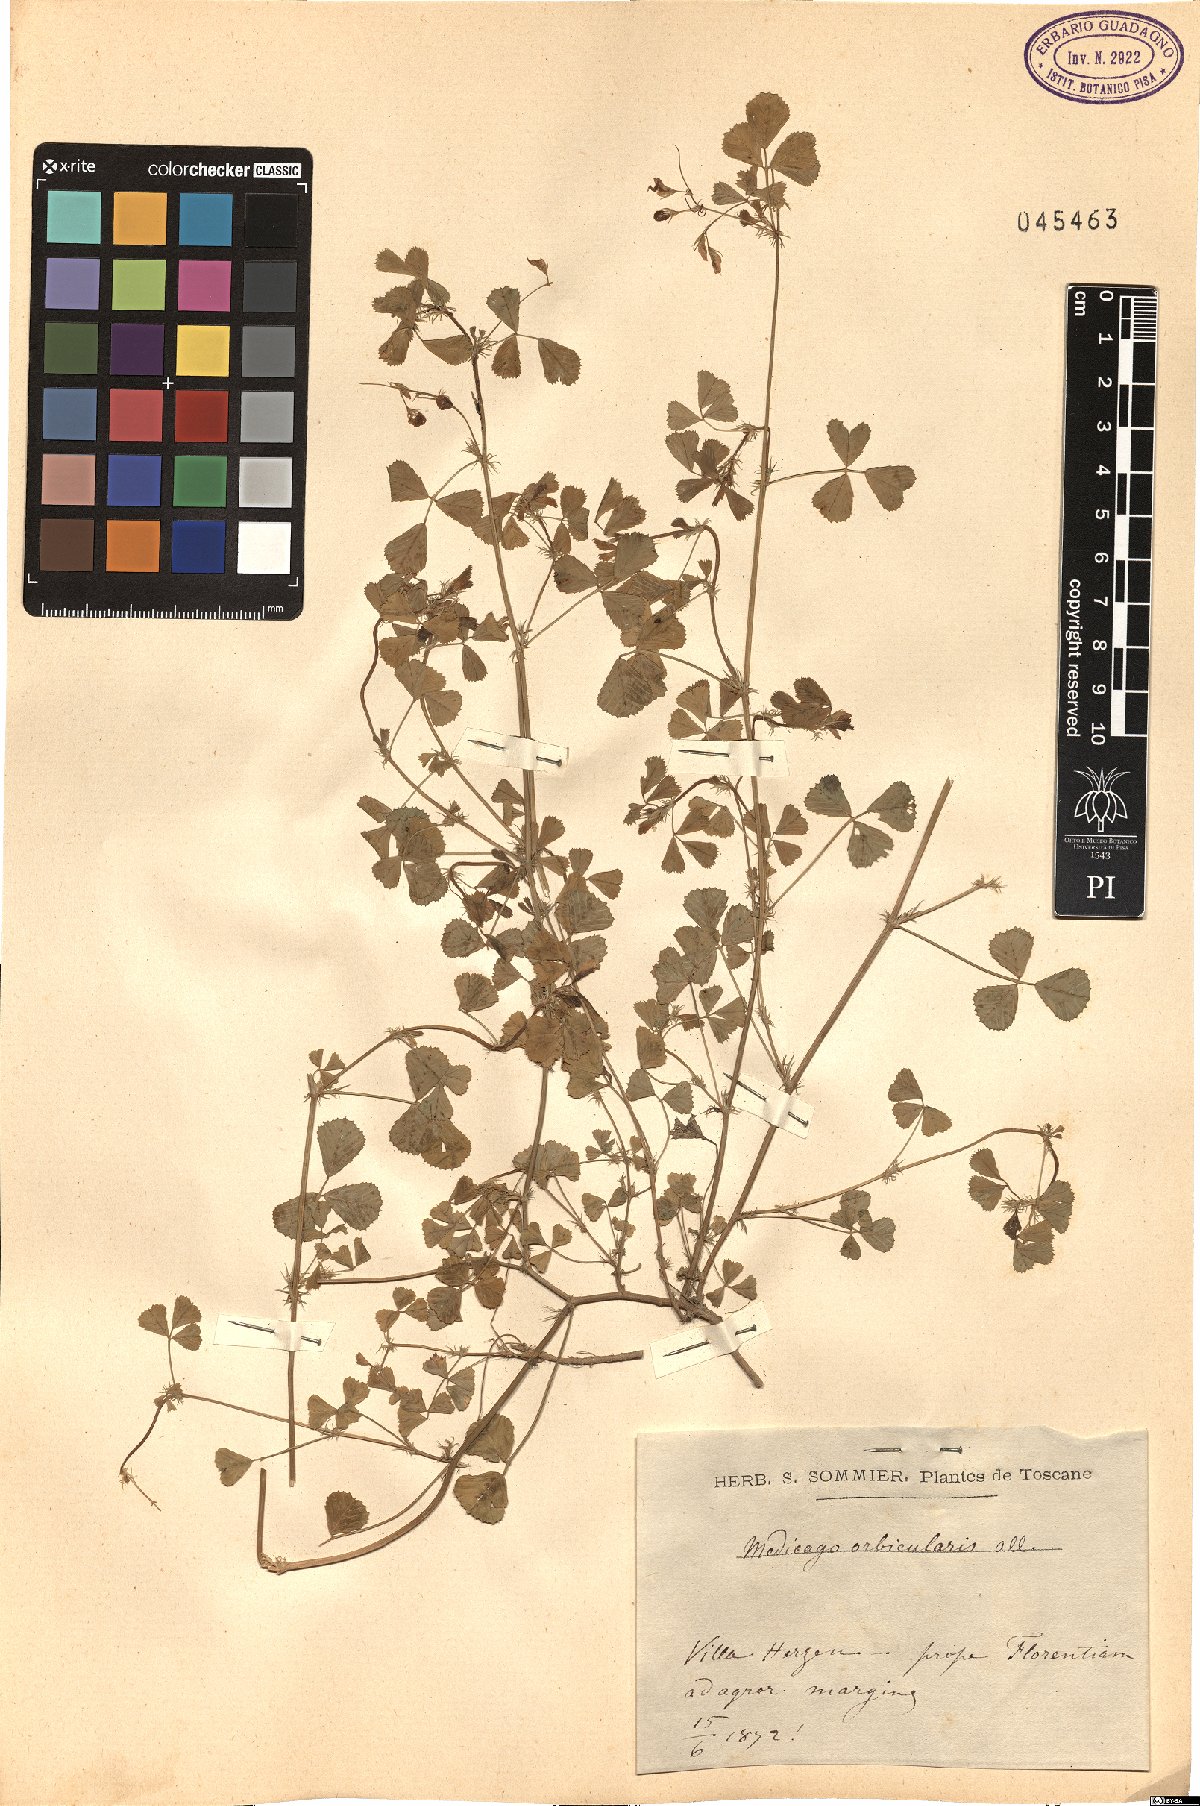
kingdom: Plantae
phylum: Tracheophyta
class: Magnoliopsida
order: Fabales
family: Fabaceae
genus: Medicago
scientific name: Medicago orbicularis
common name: Button medick
